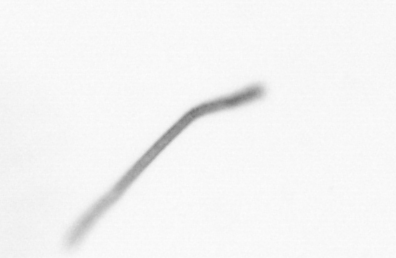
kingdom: Chromista
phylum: Ochrophyta
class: Bacillariophyceae
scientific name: Bacillariophyceae
